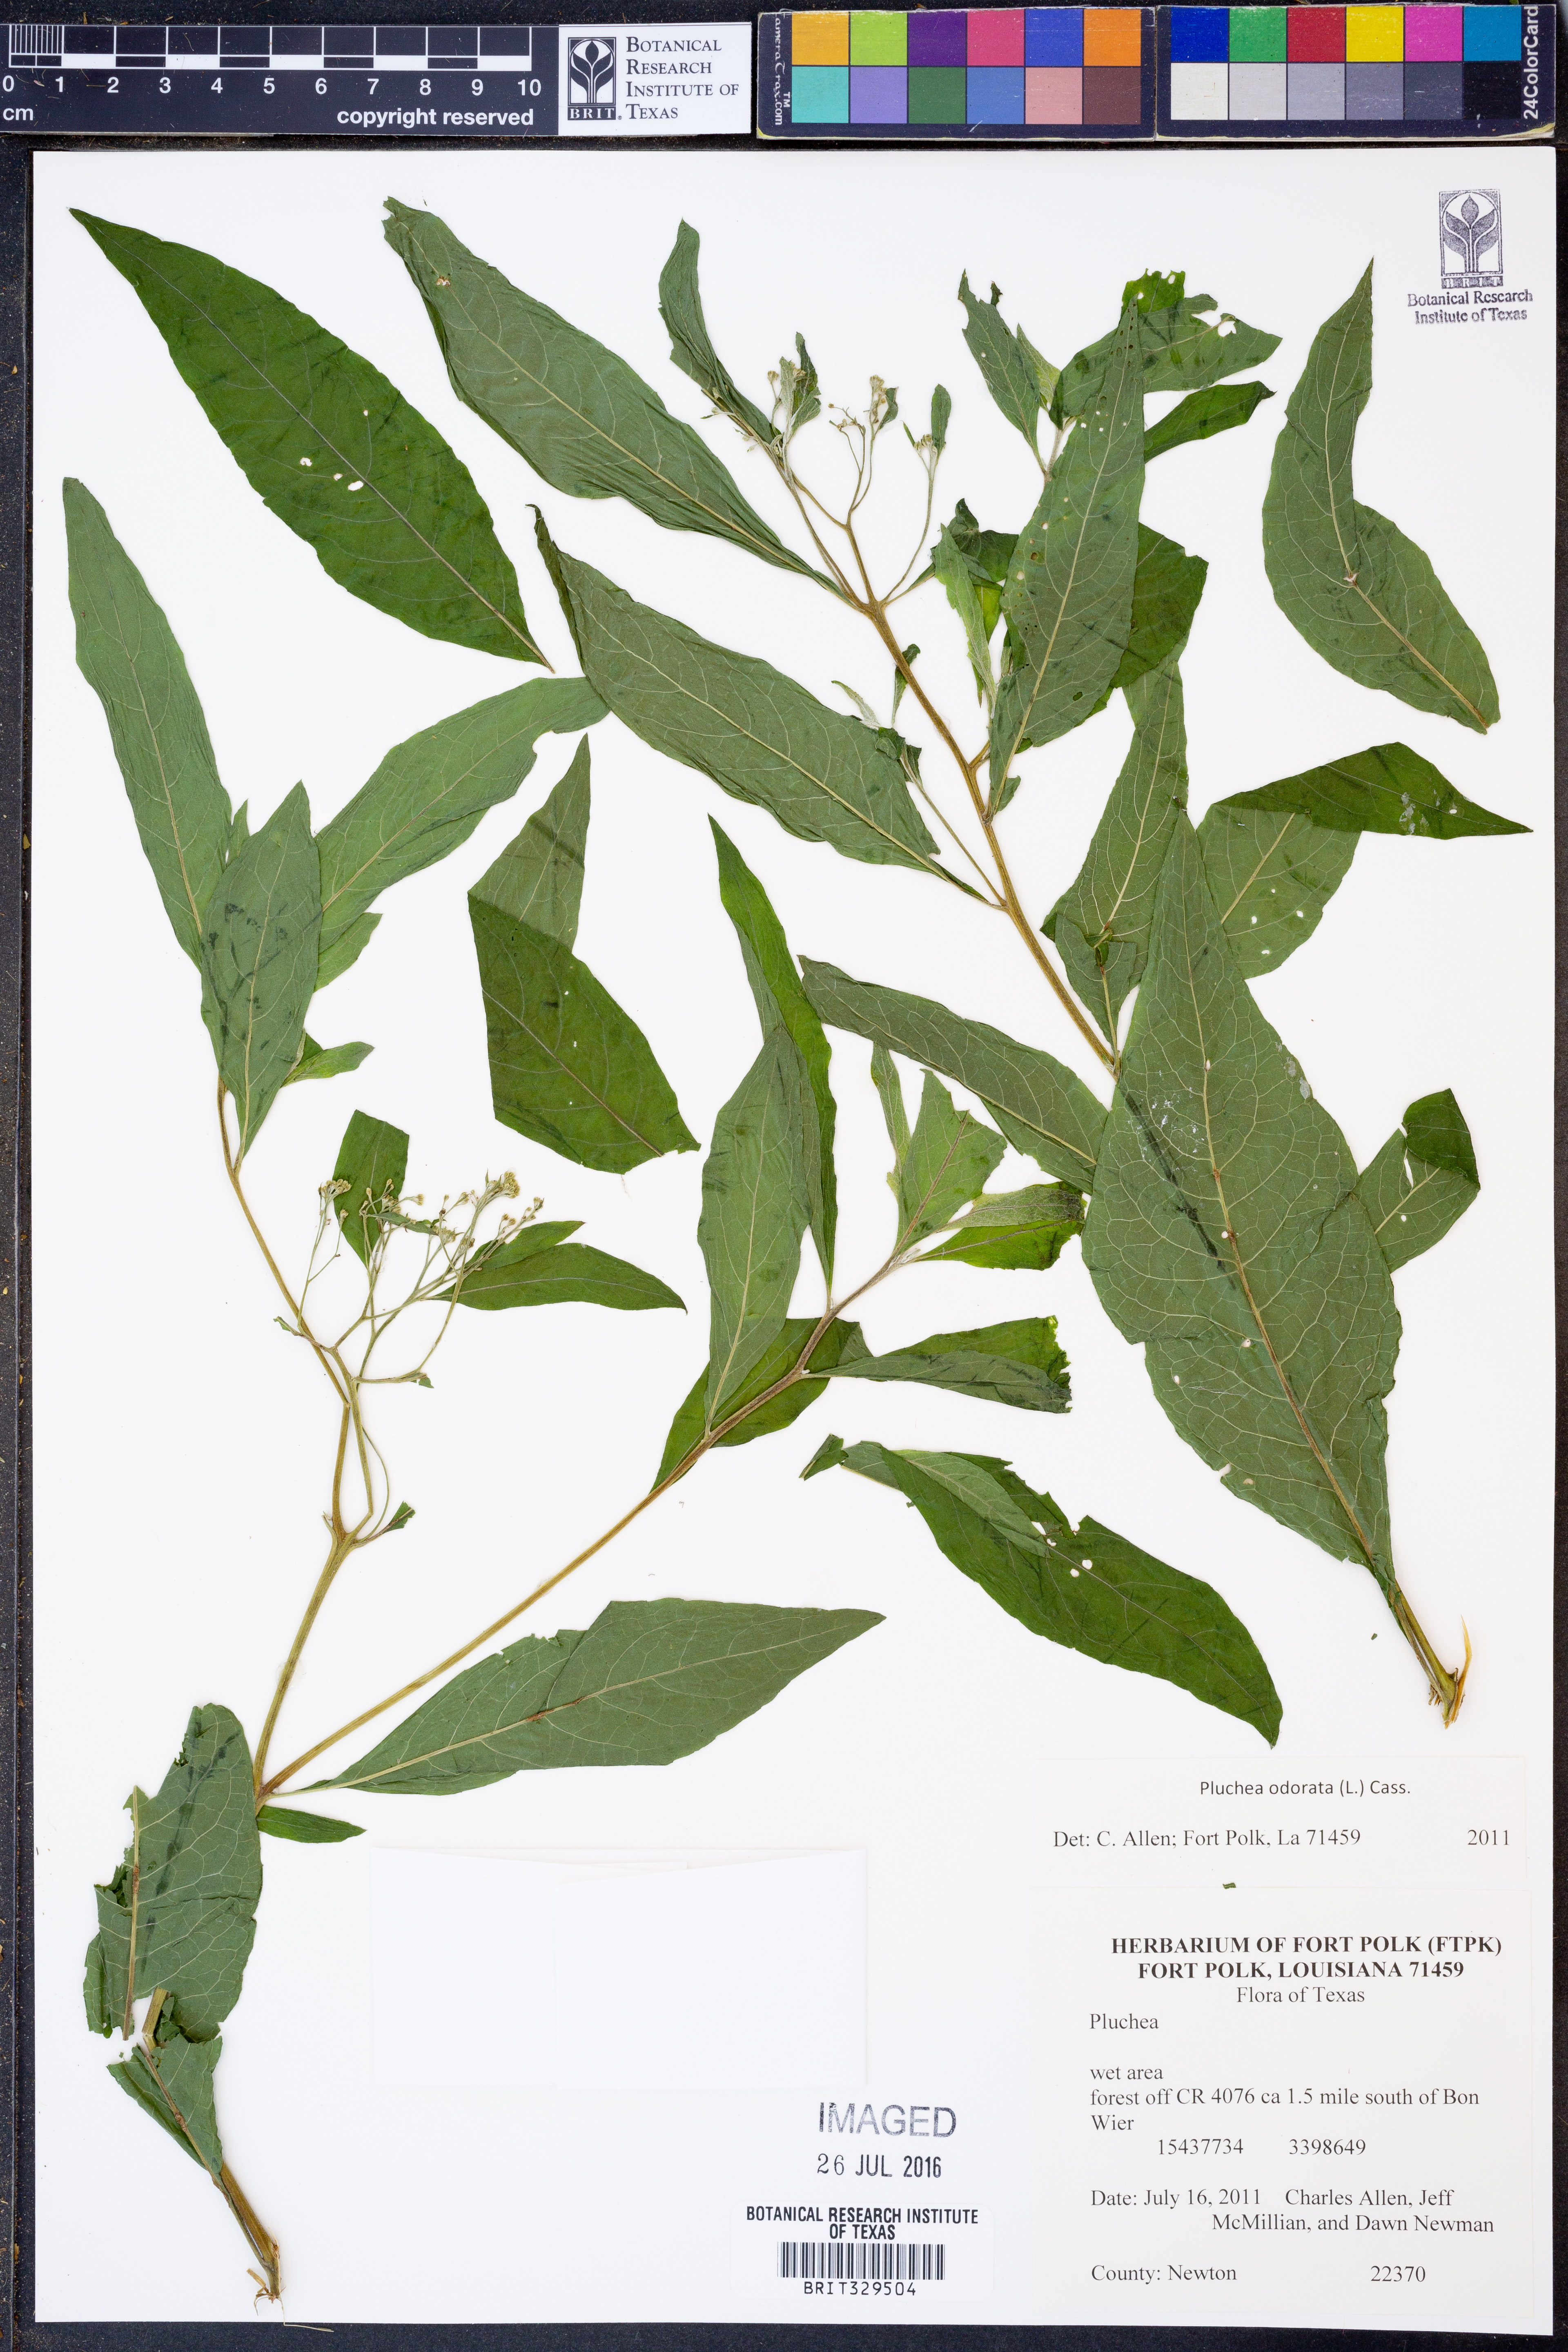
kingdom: Plantae
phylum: Tracheophyta
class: Magnoliopsida
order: Asterales
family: Asteraceae
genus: Pluchea
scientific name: Pluchea odorata
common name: Saltmarsh fleabane
